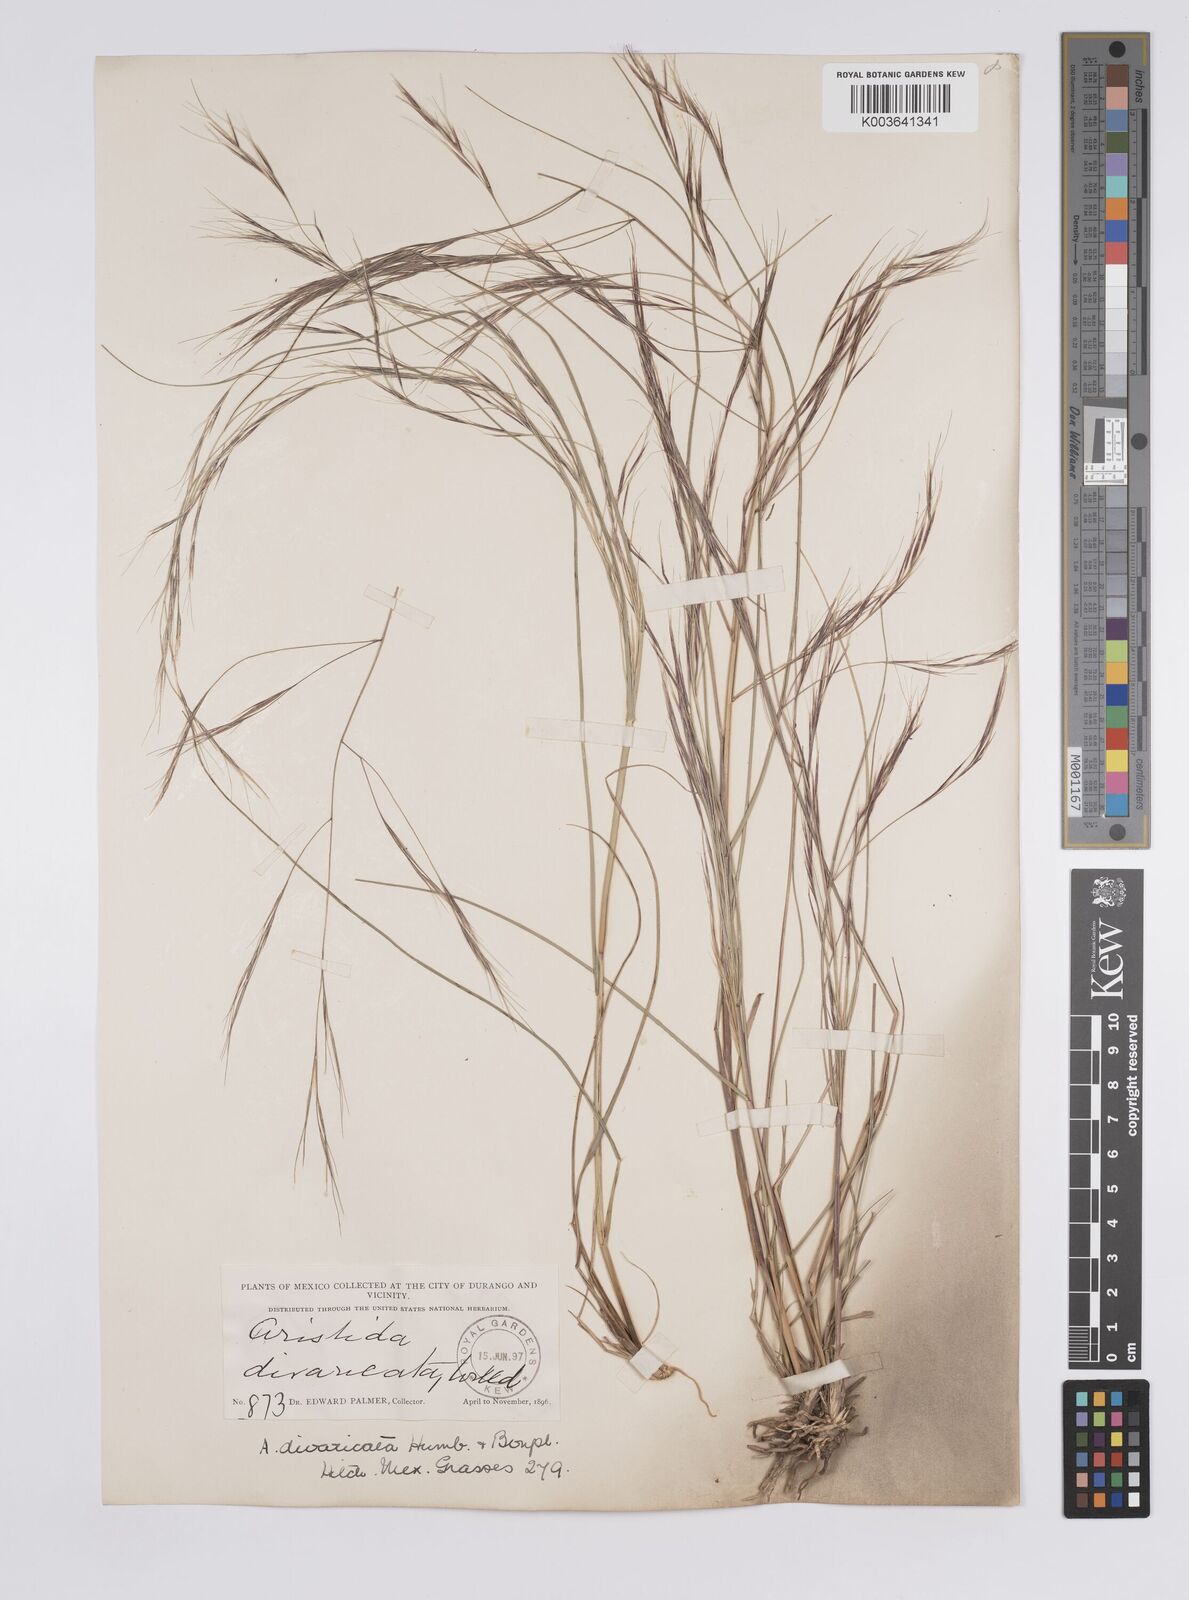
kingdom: Plantae
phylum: Tracheophyta
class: Liliopsida
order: Poales
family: Poaceae
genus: Aristida
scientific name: Aristida divaricata
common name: Poverty grass
